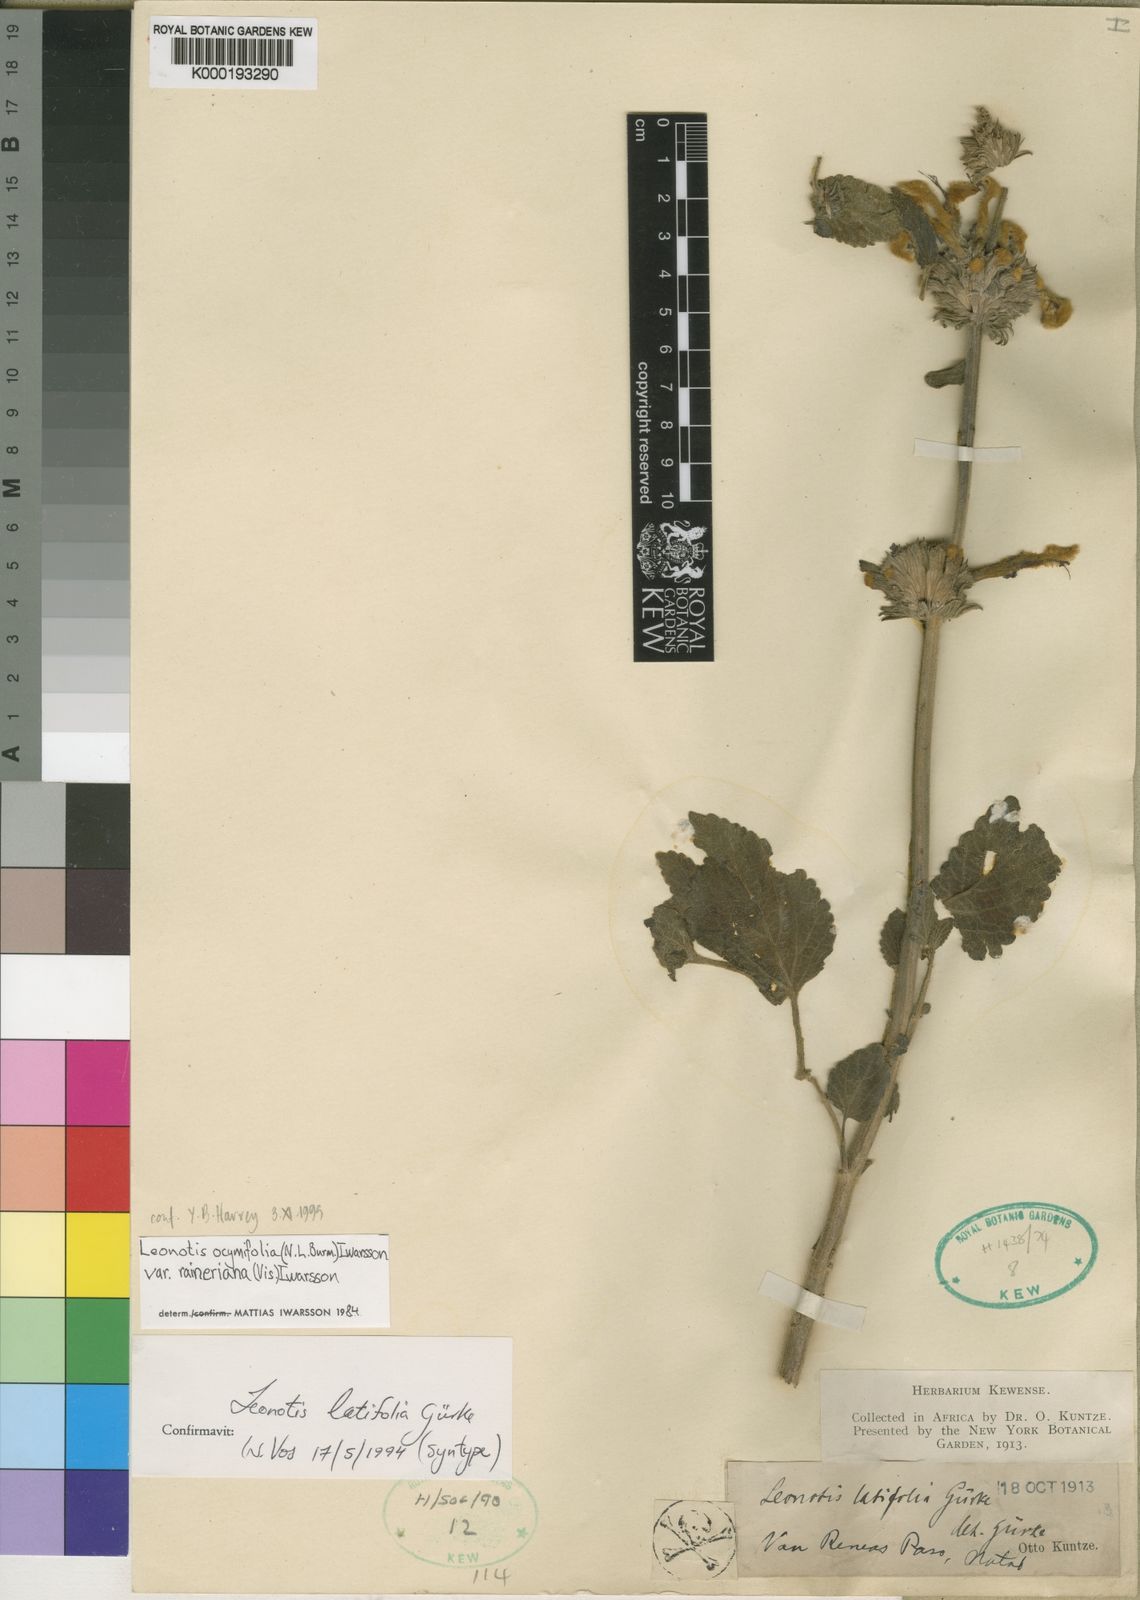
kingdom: Plantae
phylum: Tracheophyta
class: Magnoliopsida
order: Lamiales
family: Lamiaceae
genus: Leonotis
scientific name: Leonotis
